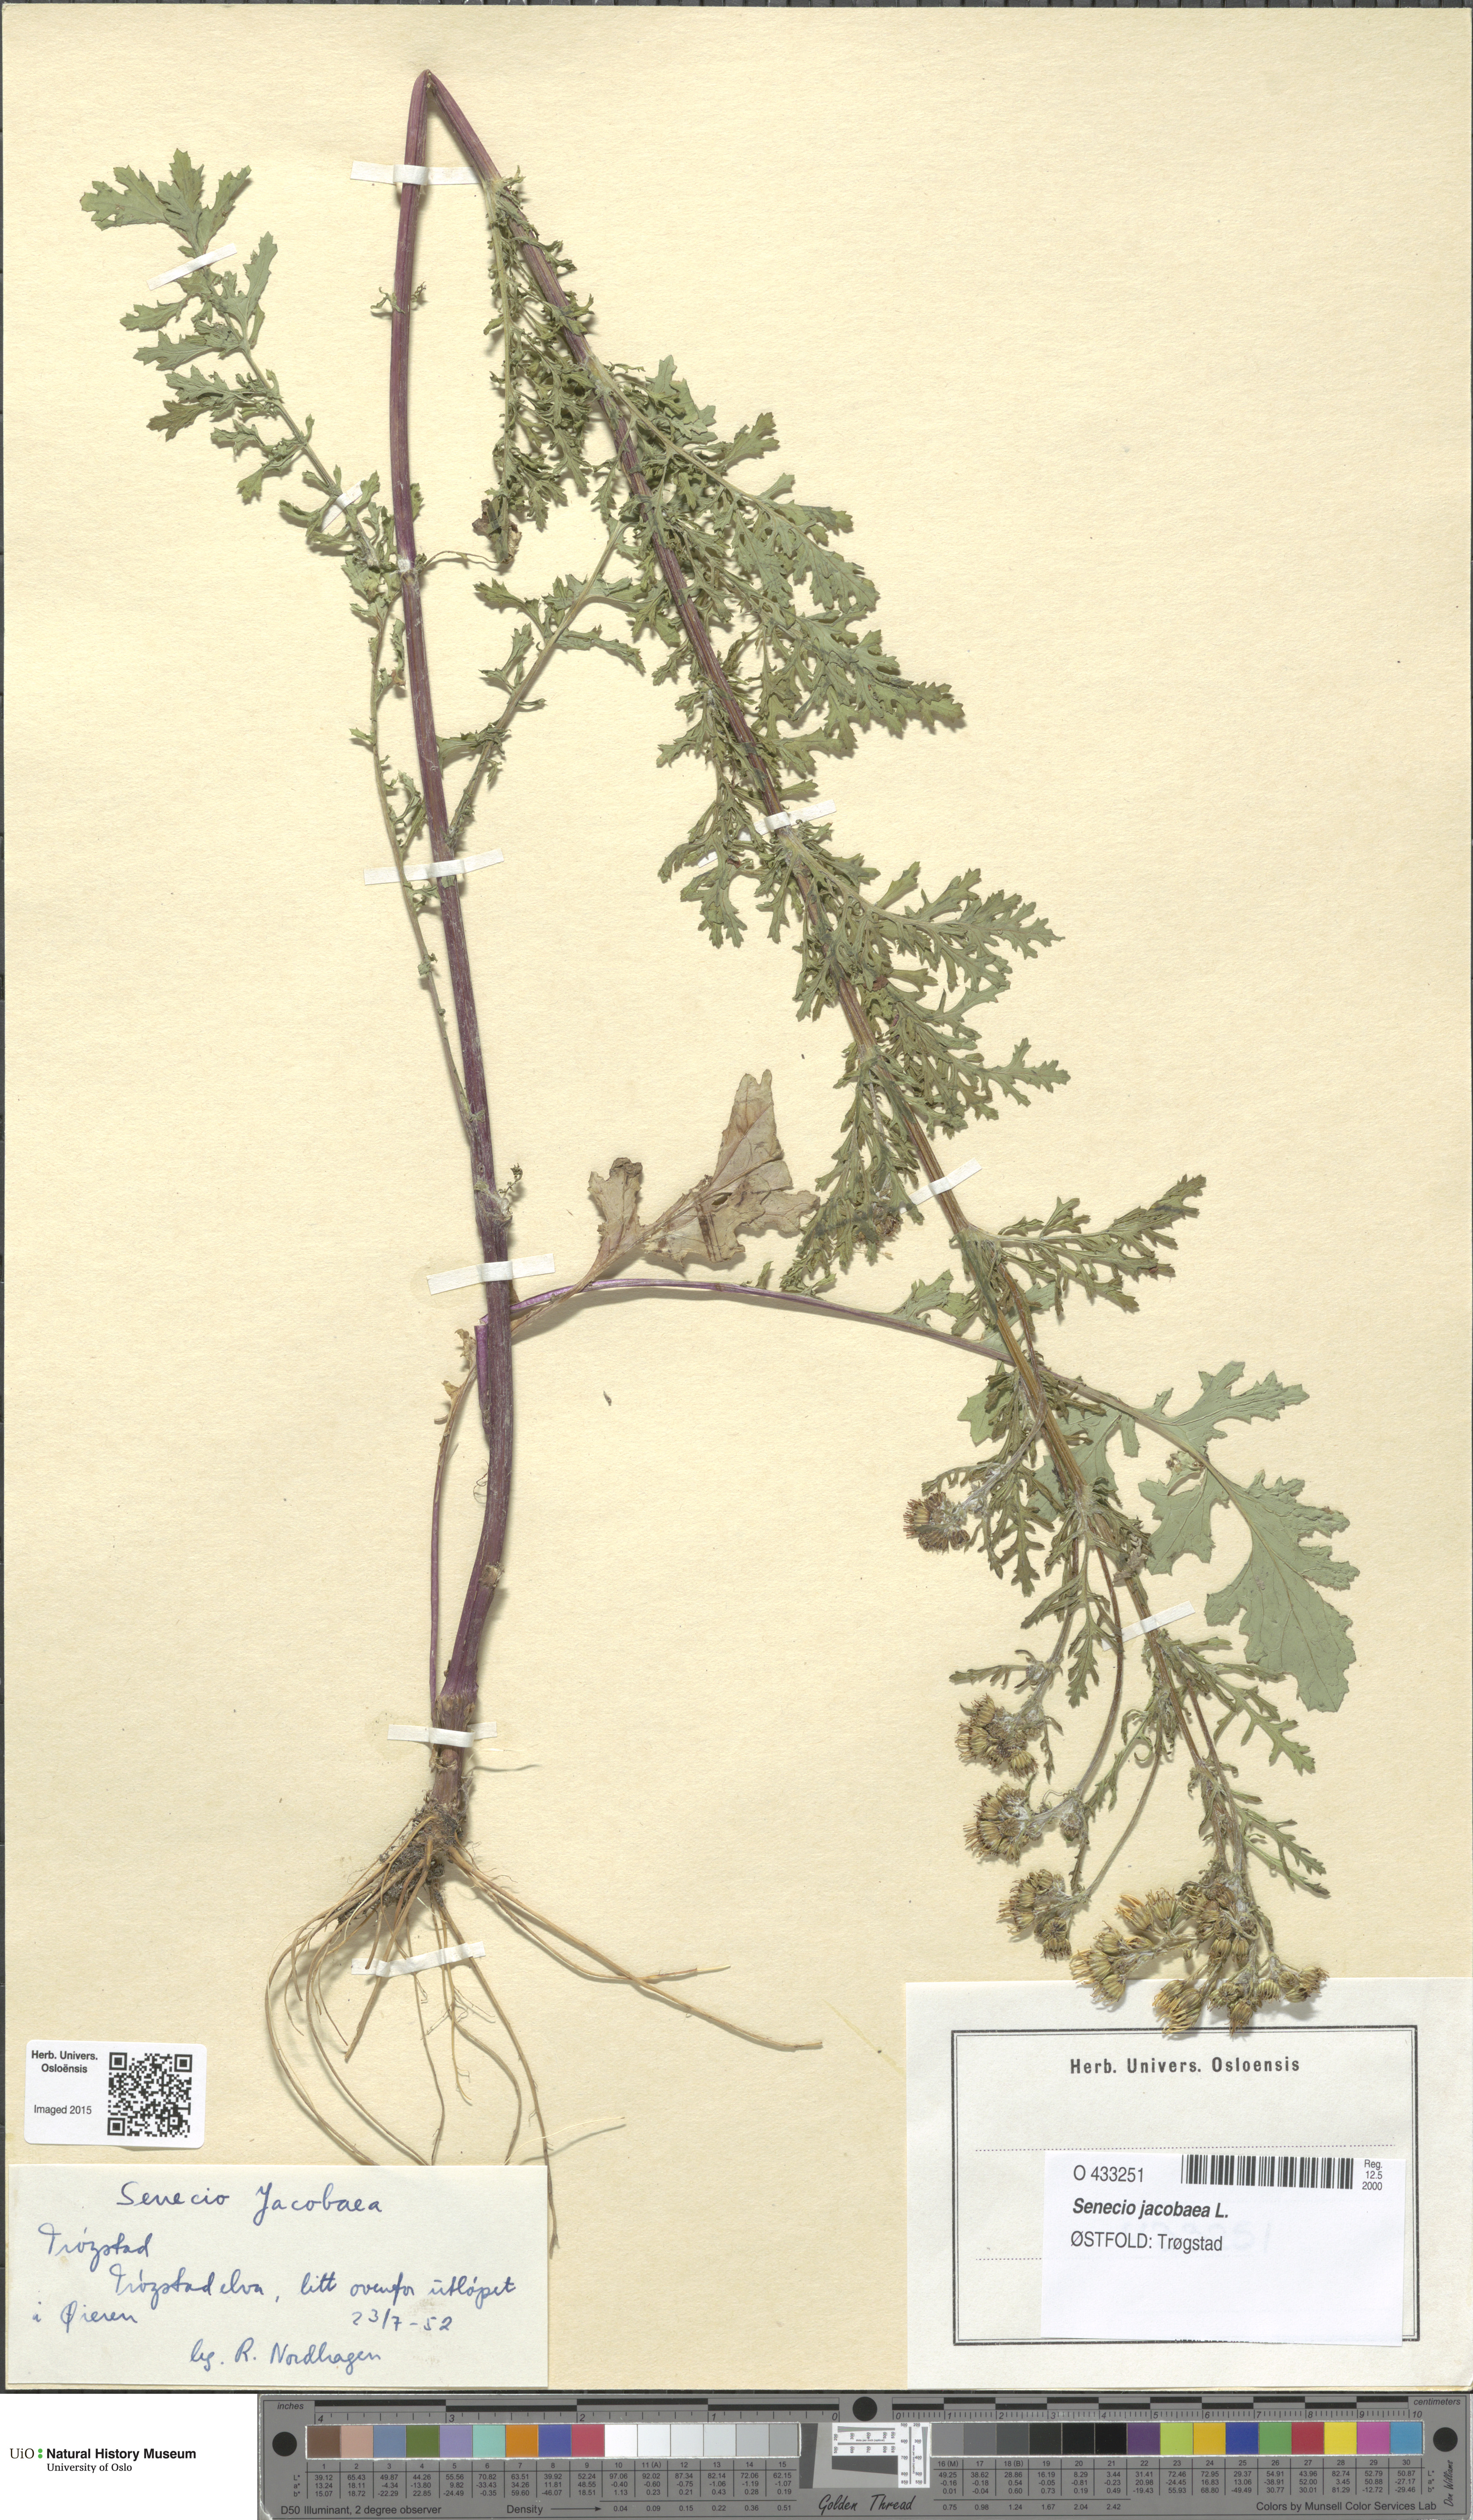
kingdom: Plantae
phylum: Tracheophyta
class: Magnoliopsida
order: Asterales
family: Asteraceae
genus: Jacobaea
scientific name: Jacobaea vulgaris
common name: Stinking willie
